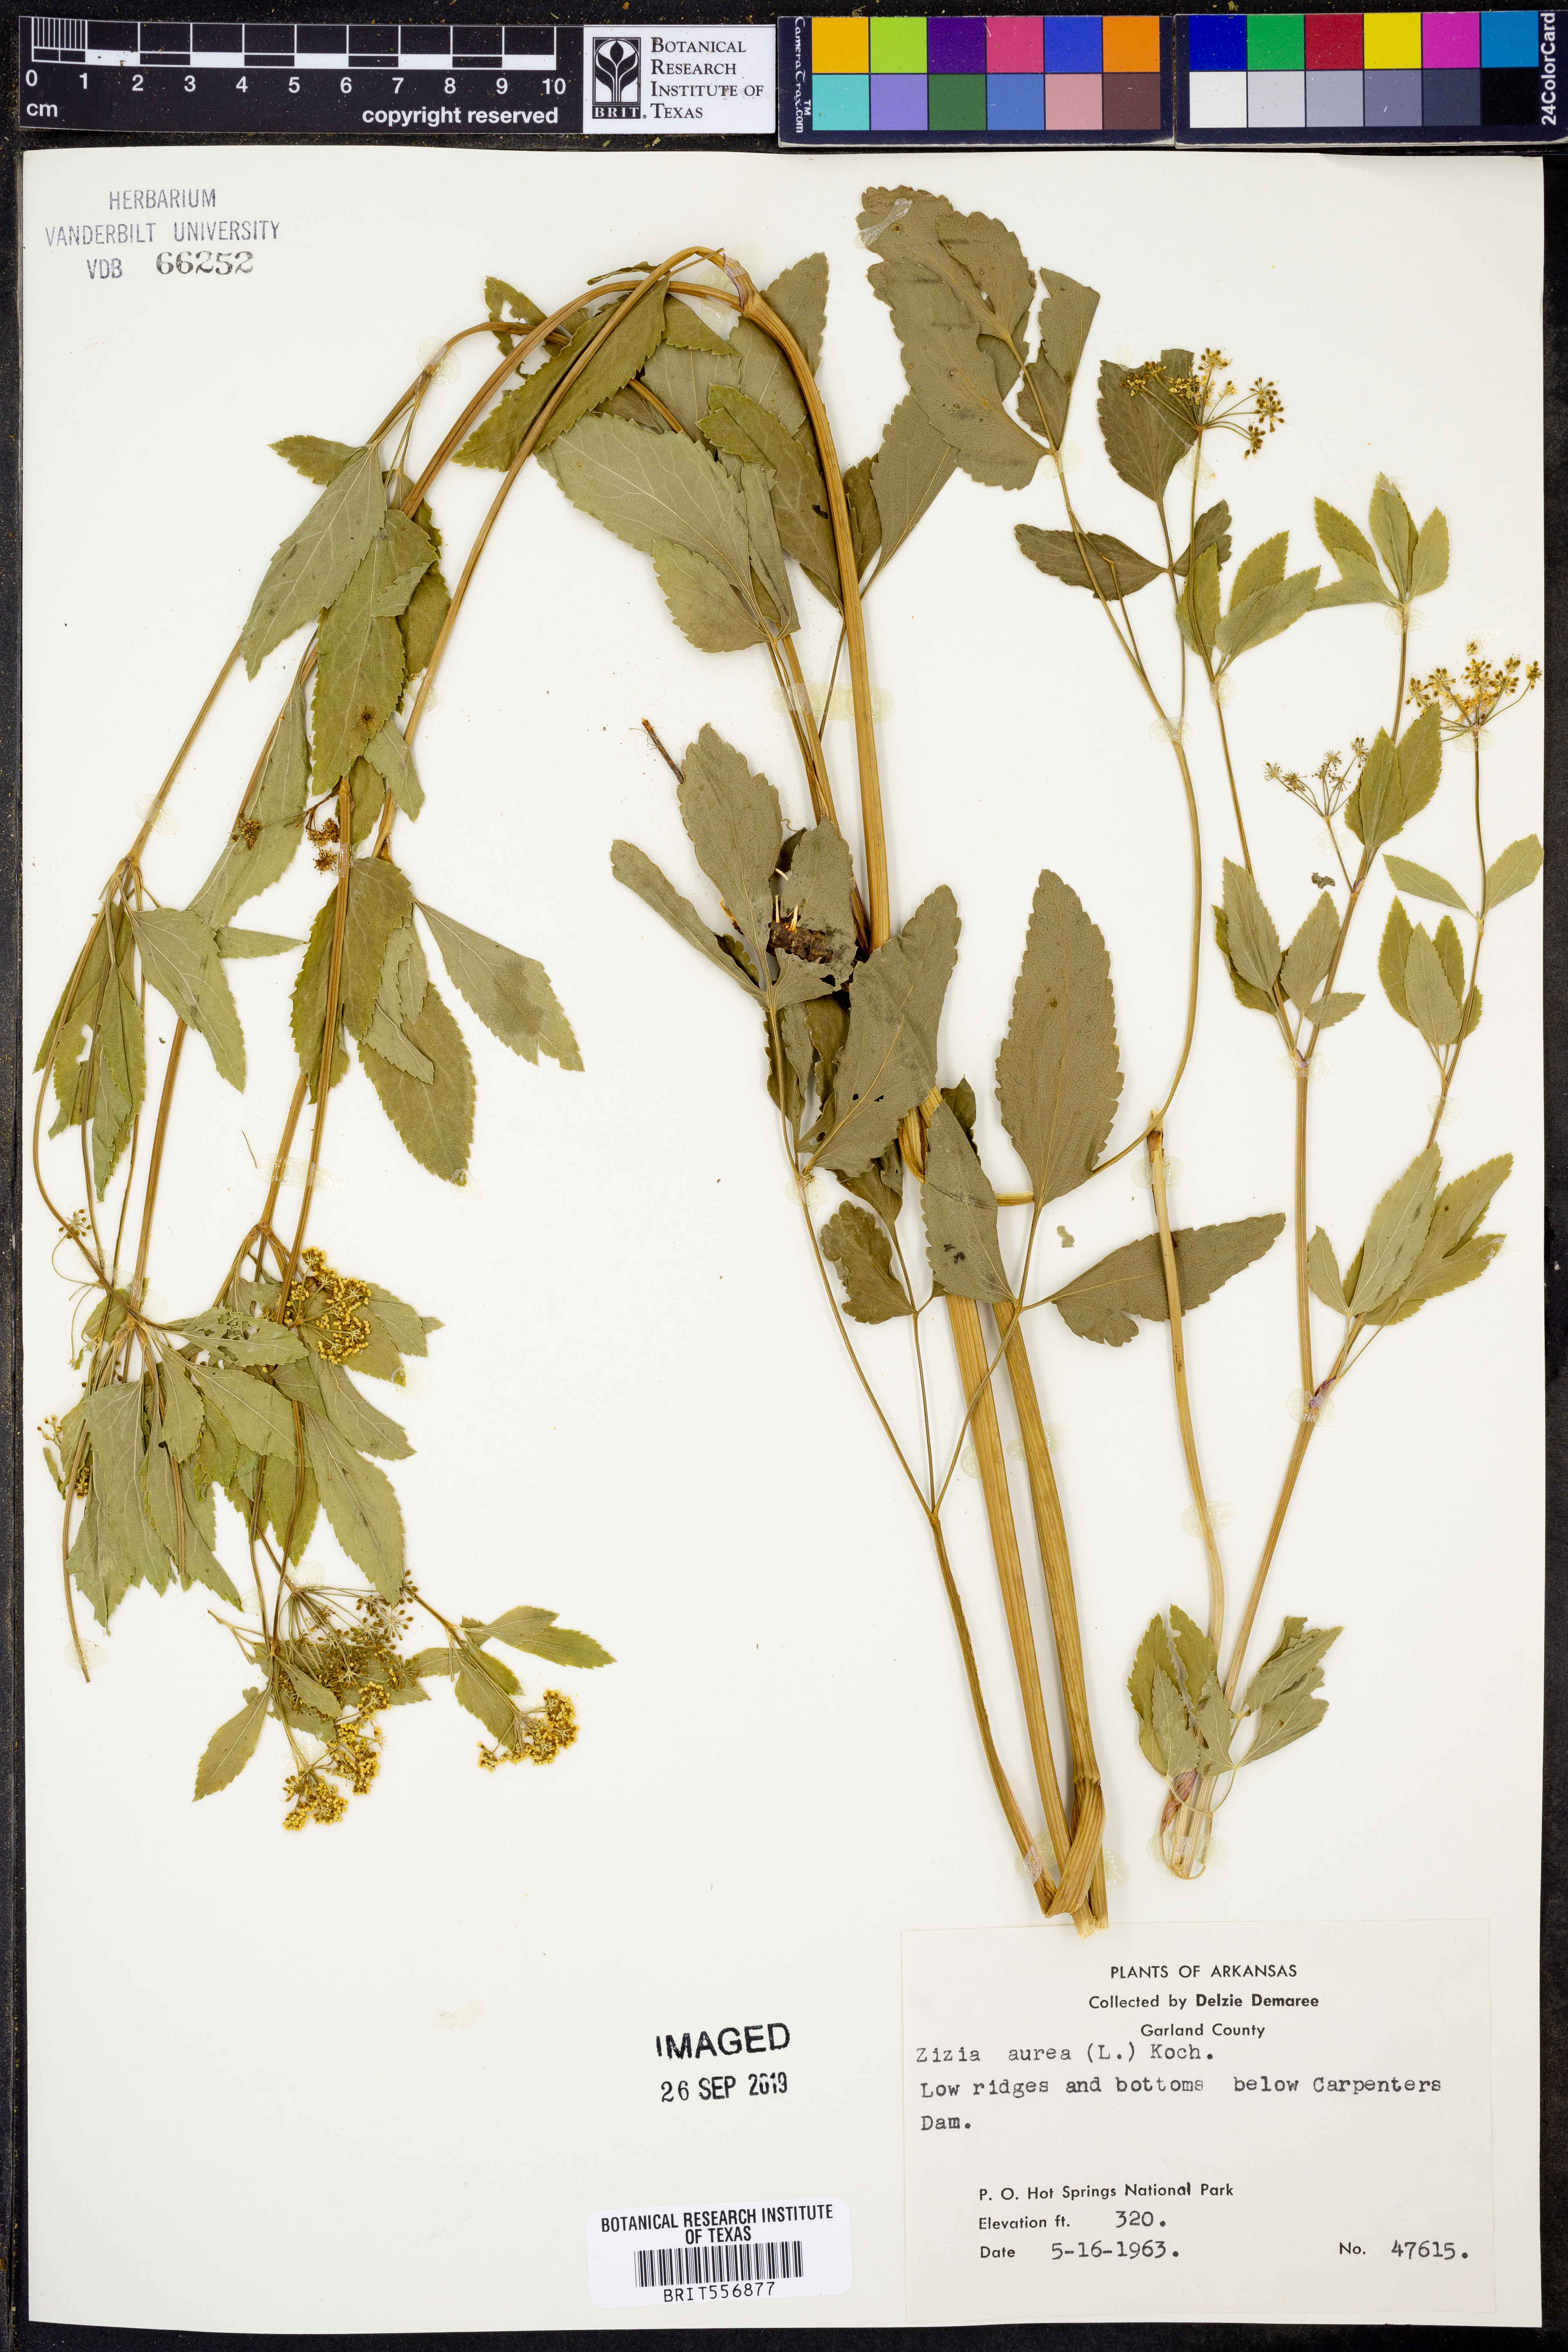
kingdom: Plantae
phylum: Tracheophyta
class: Magnoliopsida
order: Apiales
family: Apiaceae
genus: Zizia
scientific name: Zizia aurea
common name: Golden alexanders
